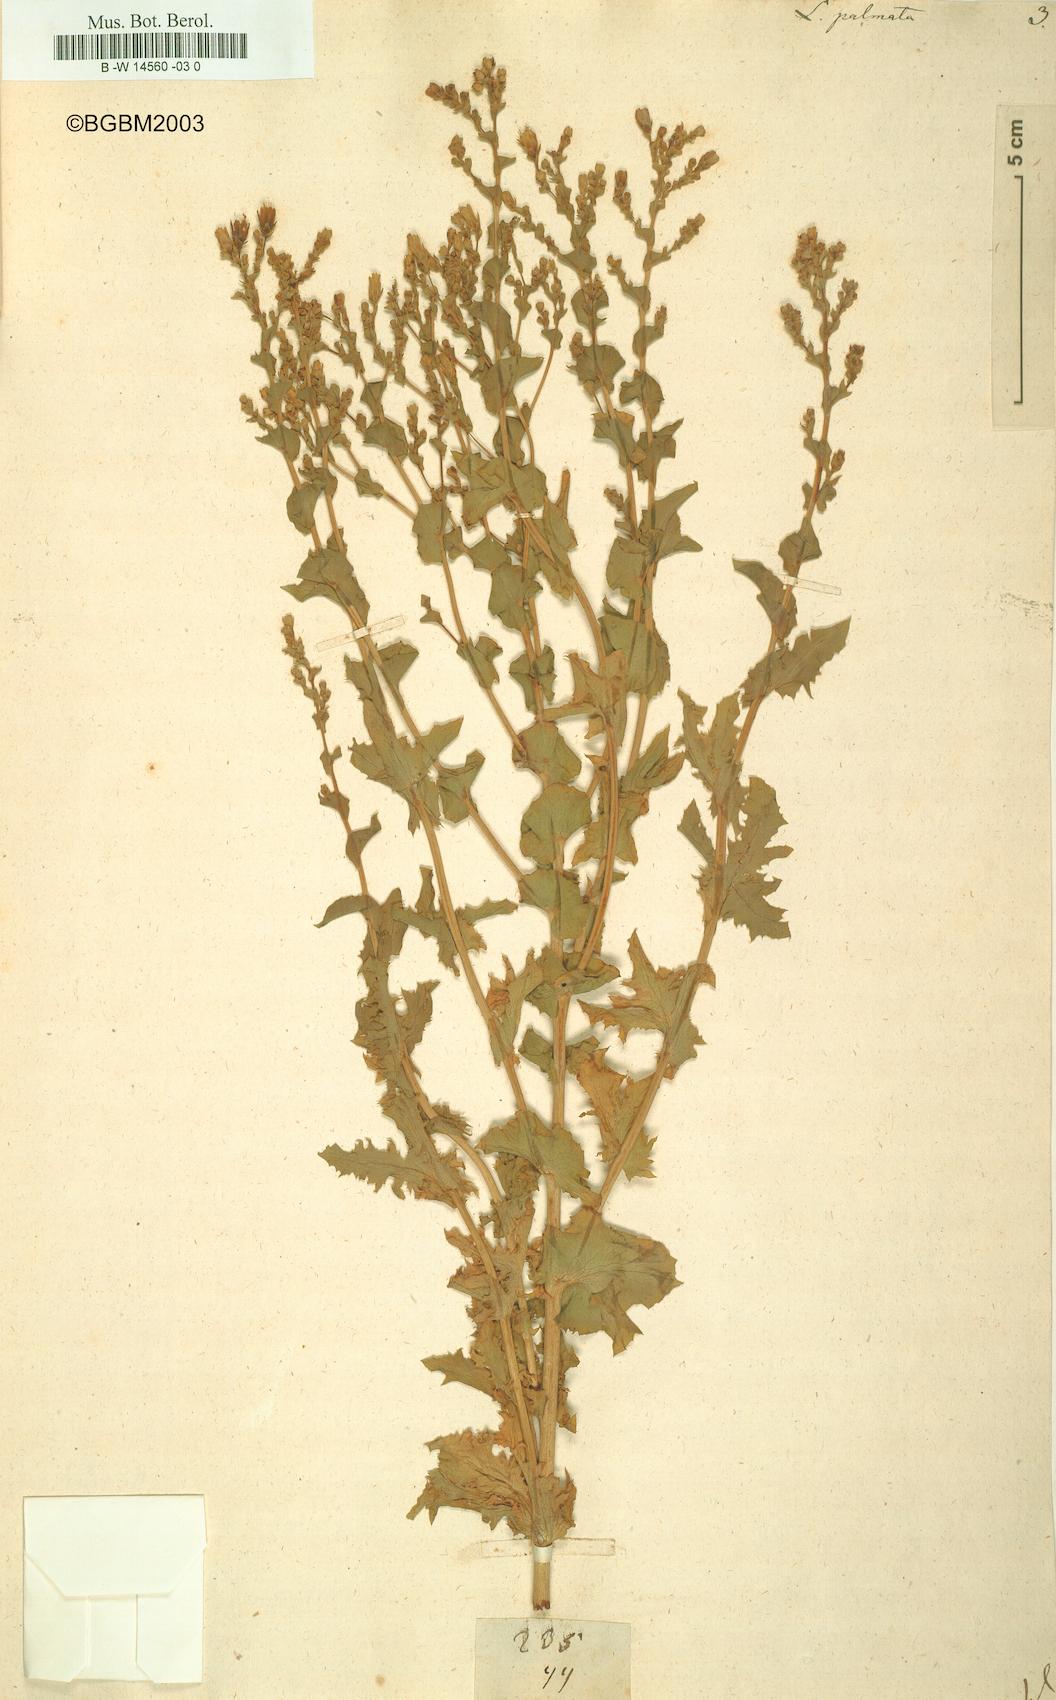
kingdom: Plantae
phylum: Tracheophyta
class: Magnoliopsida
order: Asterales
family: Asteraceae
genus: Lactuca
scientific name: Lactuca sativa
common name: Garden lettuce
